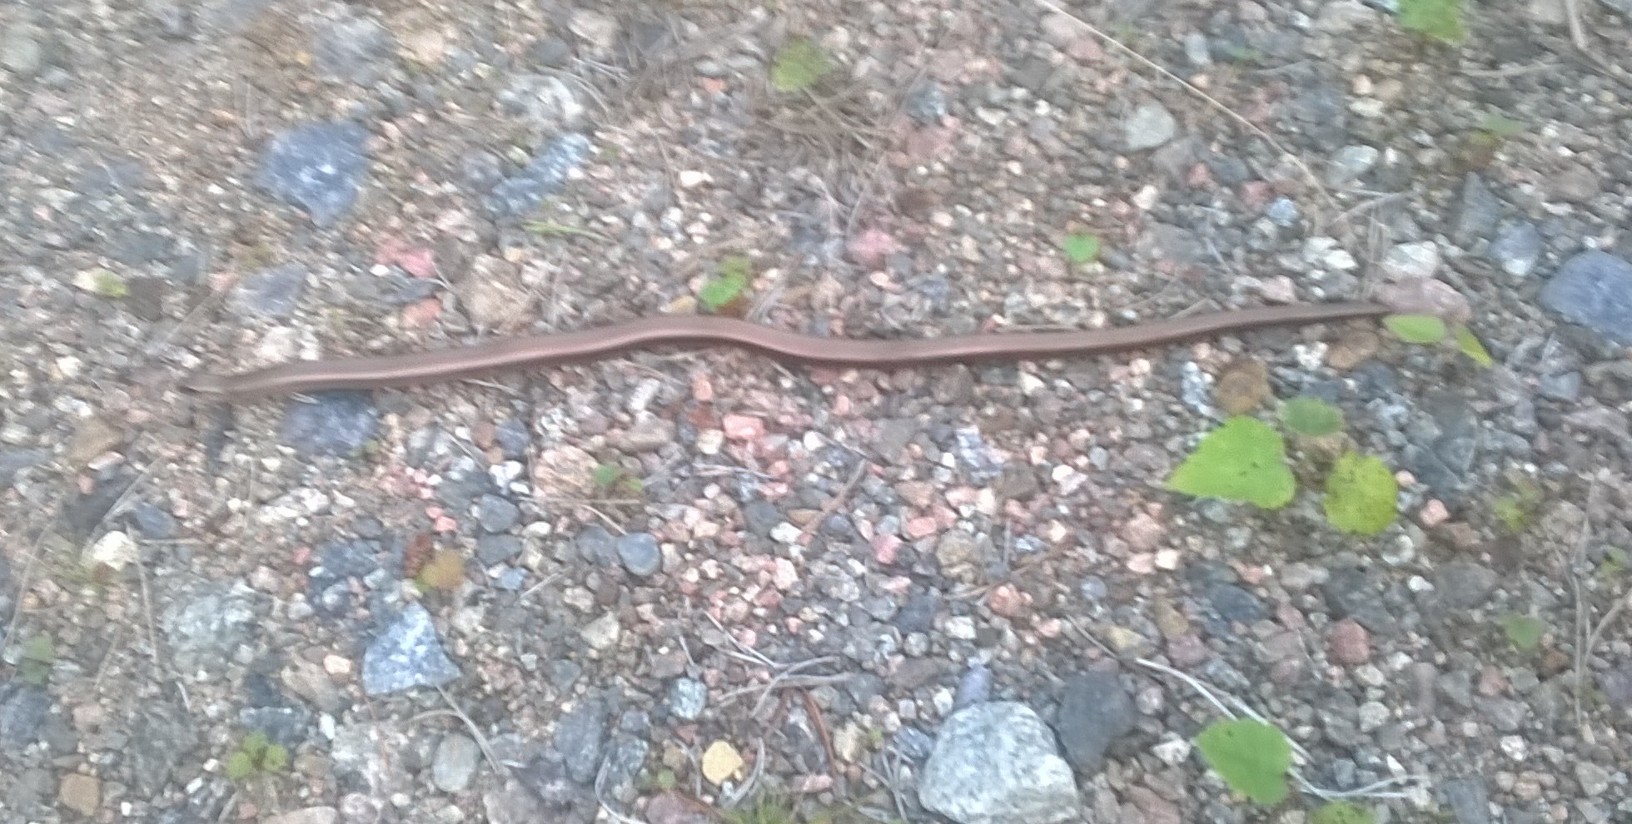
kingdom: Animalia
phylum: Chordata
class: Squamata
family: Anguidae
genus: Anguis
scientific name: Anguis colchica
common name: Slow worm
